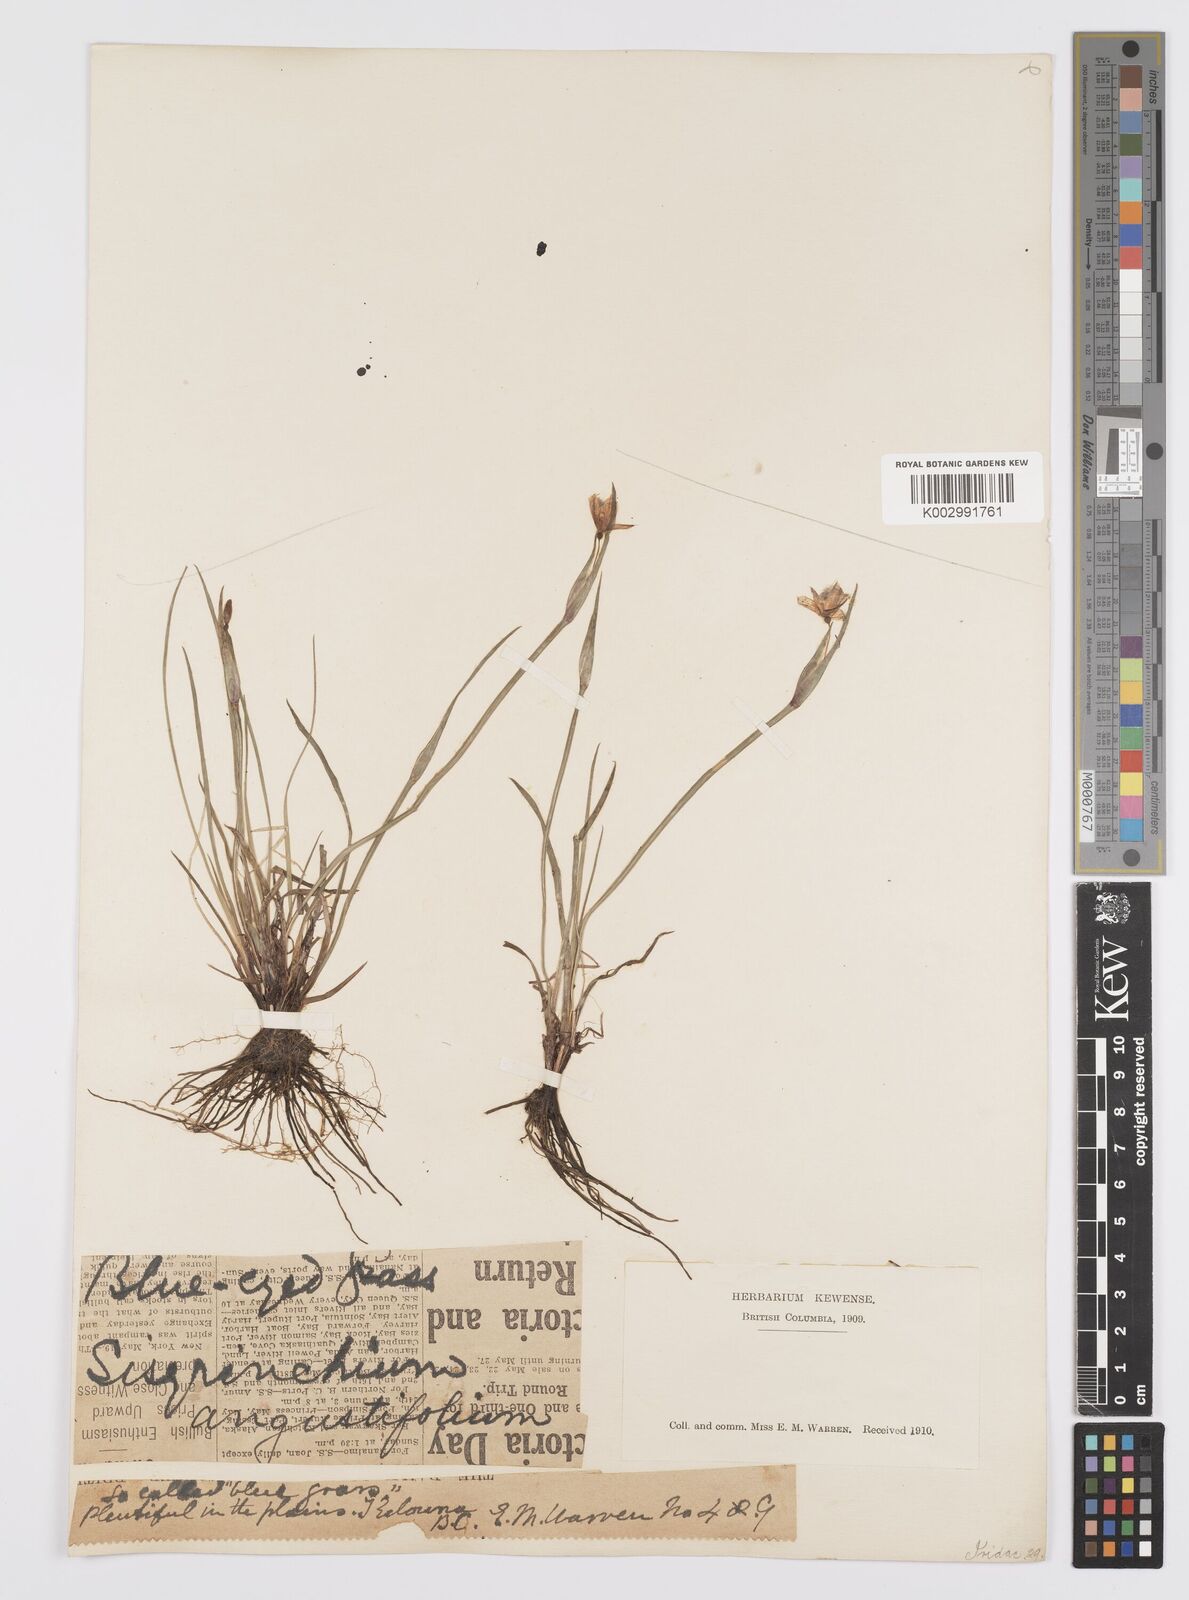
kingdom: Plantae
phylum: Tracheophyta
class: Liliopsida
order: Asparagales
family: Iridaceae
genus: Sisyrinchium
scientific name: Sisyrinchium bermudiana
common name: Blue-eyed-grass
